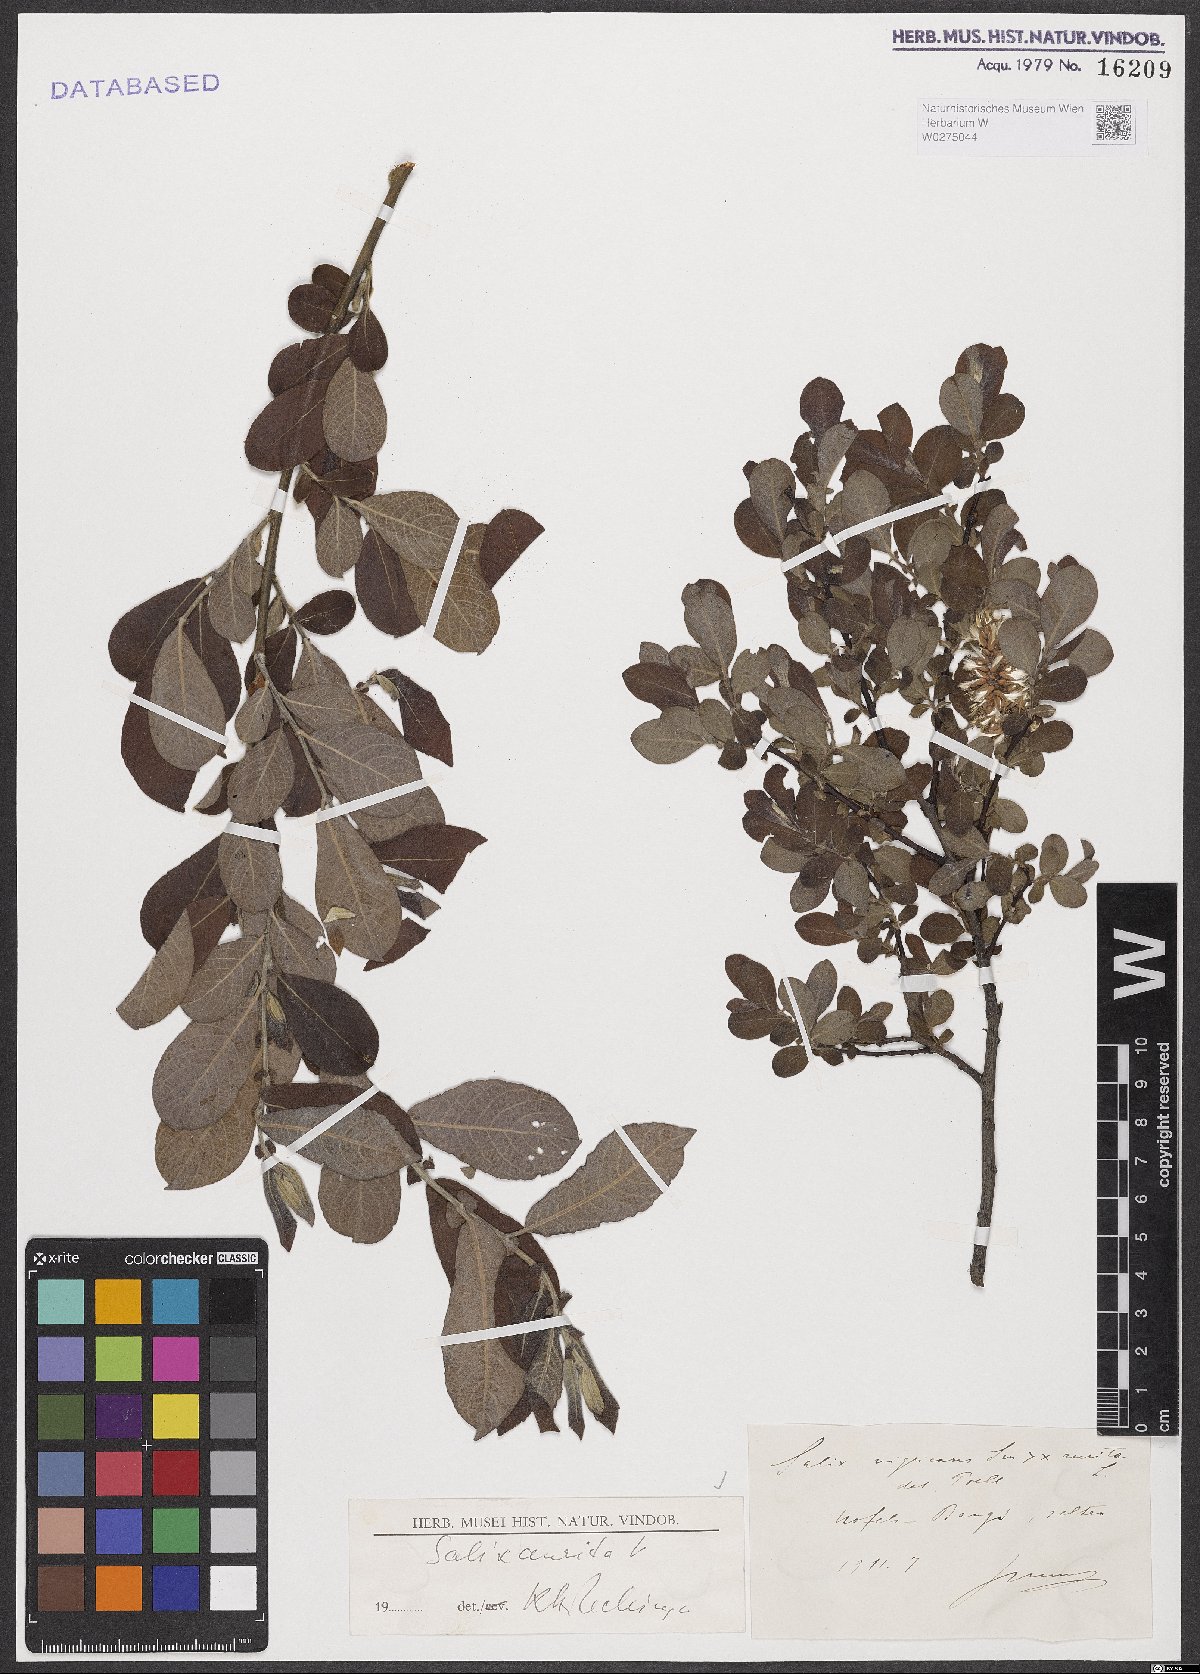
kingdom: Plantae
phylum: Tracheophyta
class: Magnoliopsida
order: Malpighiales
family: Salicaceae
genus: Salix
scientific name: Salix aurita
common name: Eared willow
